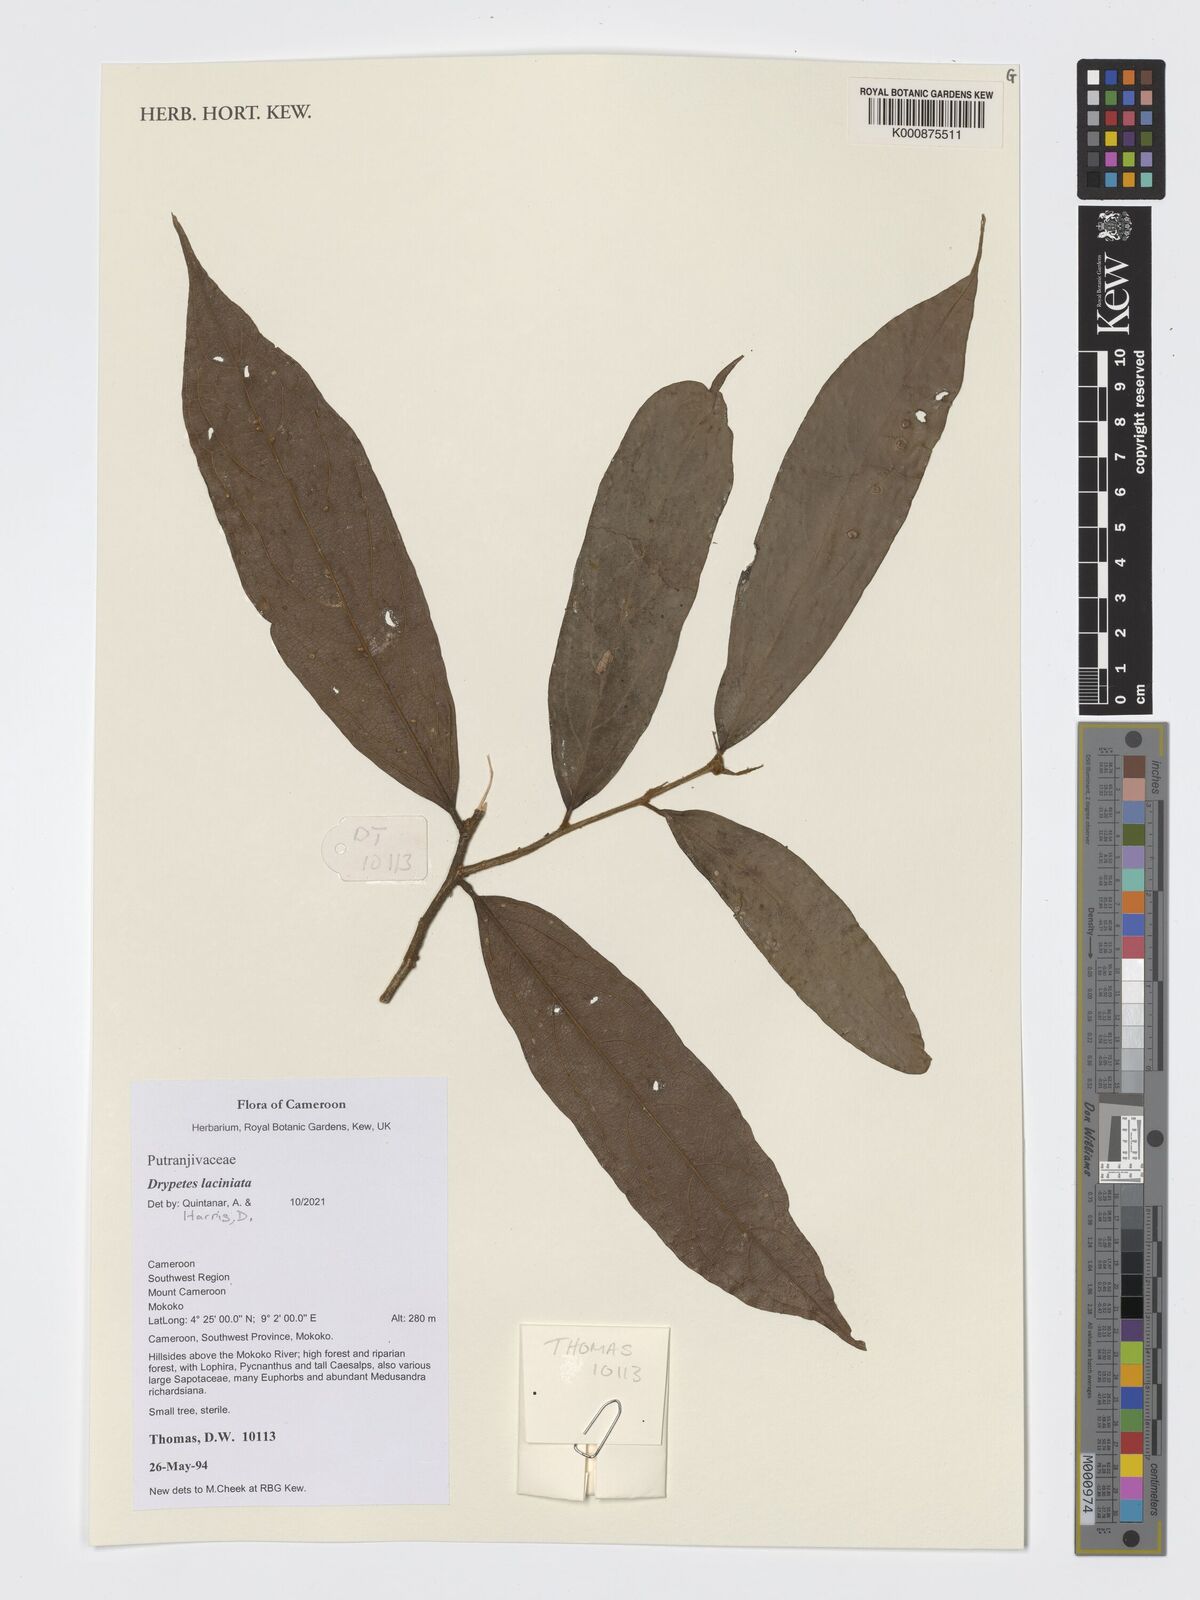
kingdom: Plantae
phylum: Tracheophyta
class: Magnoliopsida
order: Malpighiales
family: Putranjivaceae
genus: Drypetes
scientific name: Drypetes laciniata
